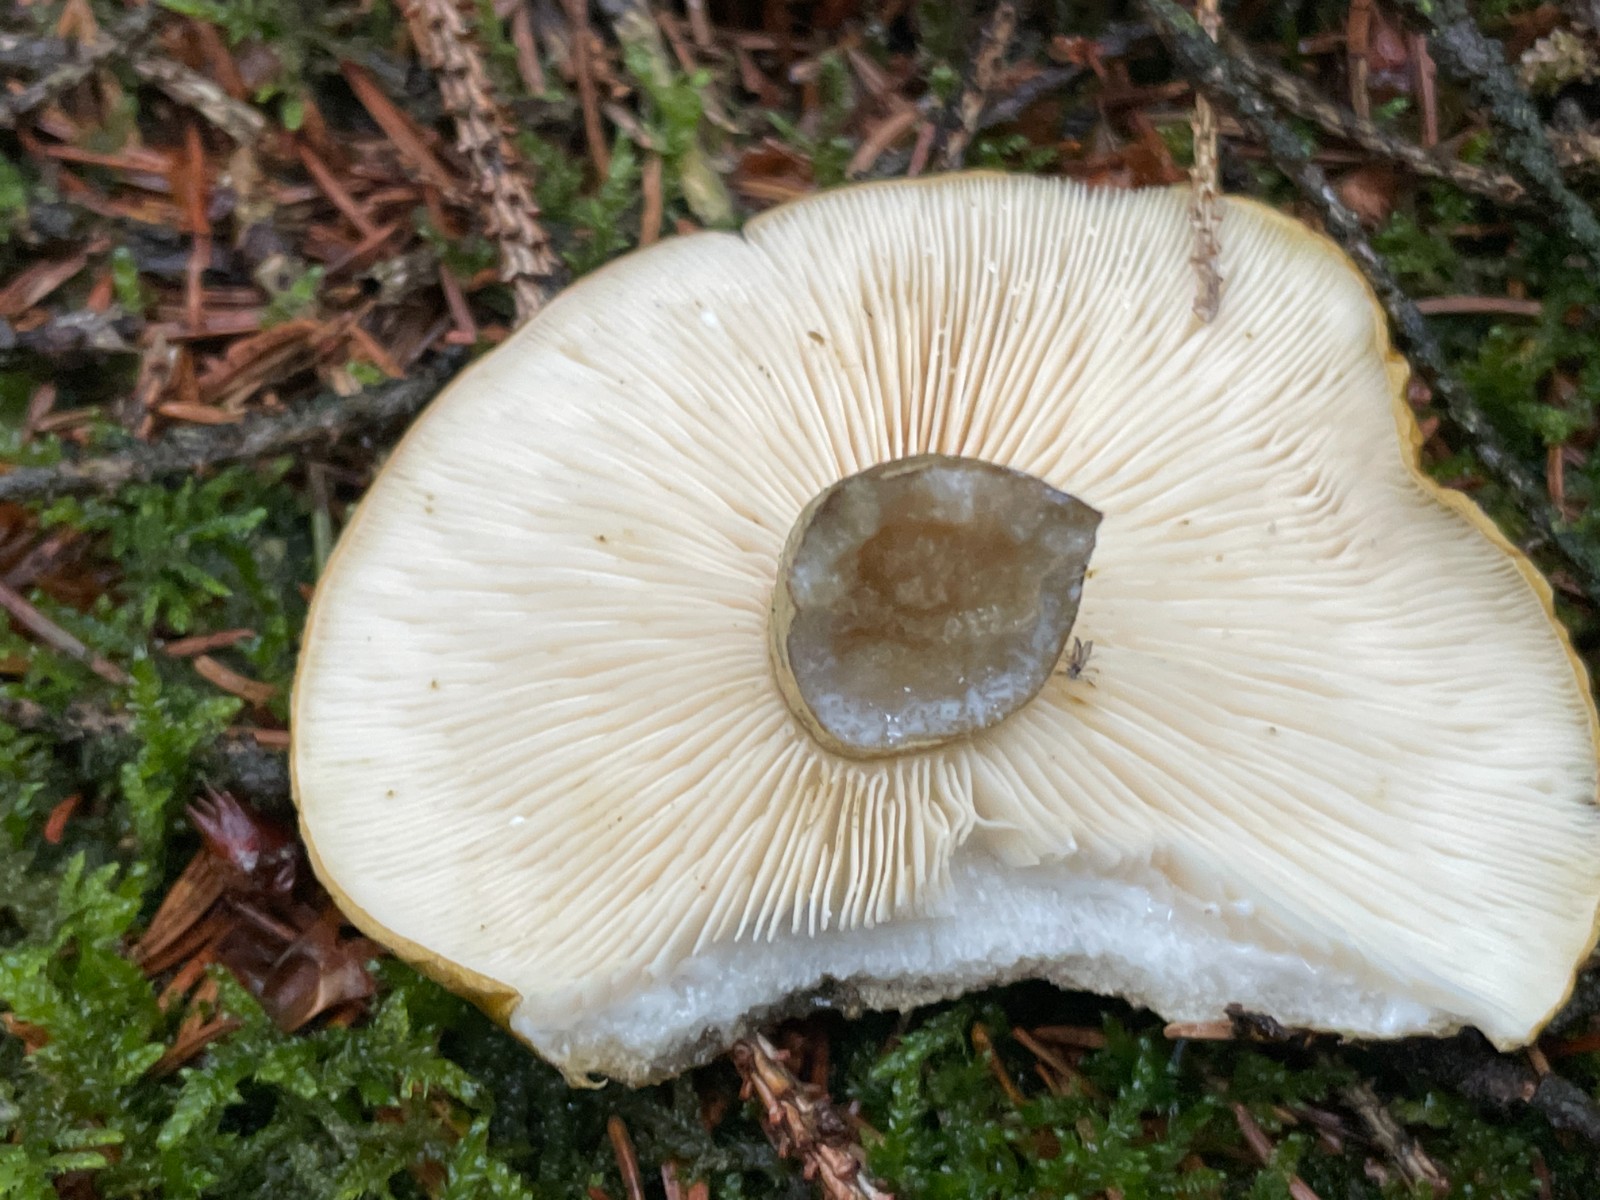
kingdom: Fungi
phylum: Basidiomycota
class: Agaricomycetes
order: Russulales
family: Russulaceae
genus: Lactarius
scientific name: Lactarius necator
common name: manddraber-mælkehat
